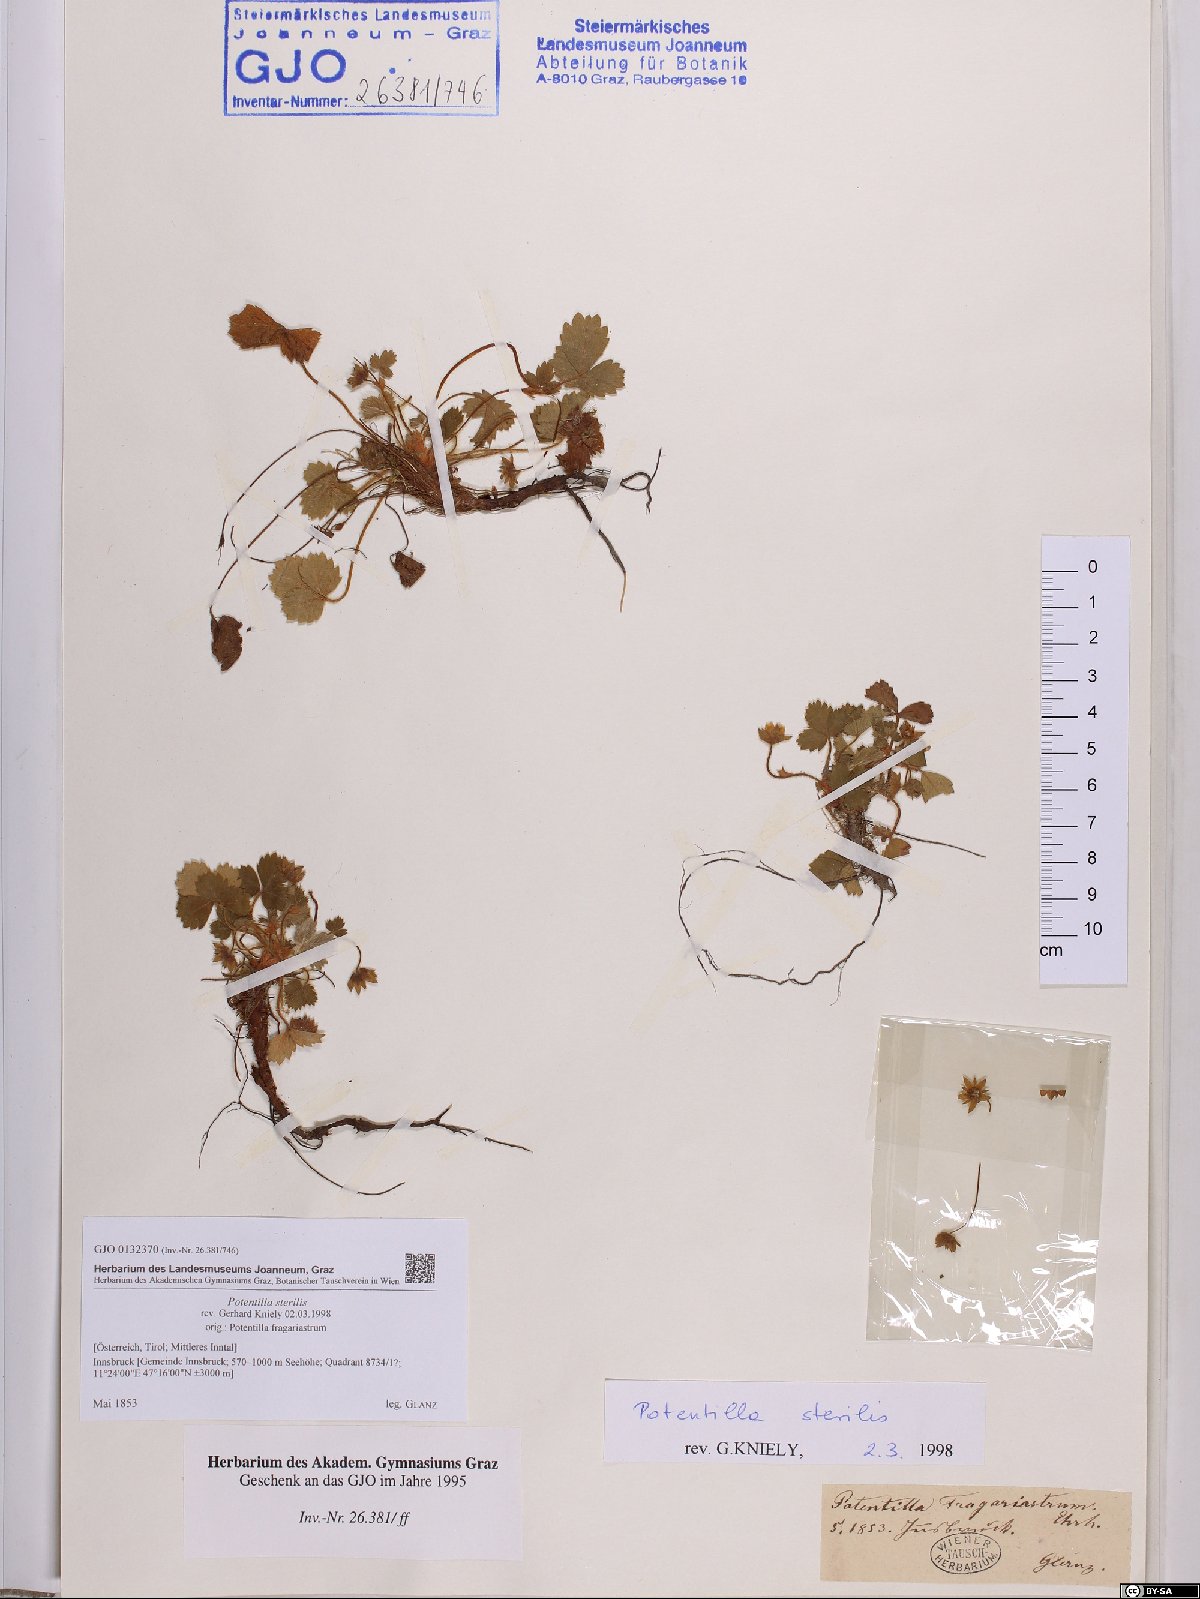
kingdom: Plantae
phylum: Tracheophyta
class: Magnoliopsida
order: Rosales
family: Rosaceae
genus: Potentilla
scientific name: Potentilla sterilis
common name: Barren strawberry
